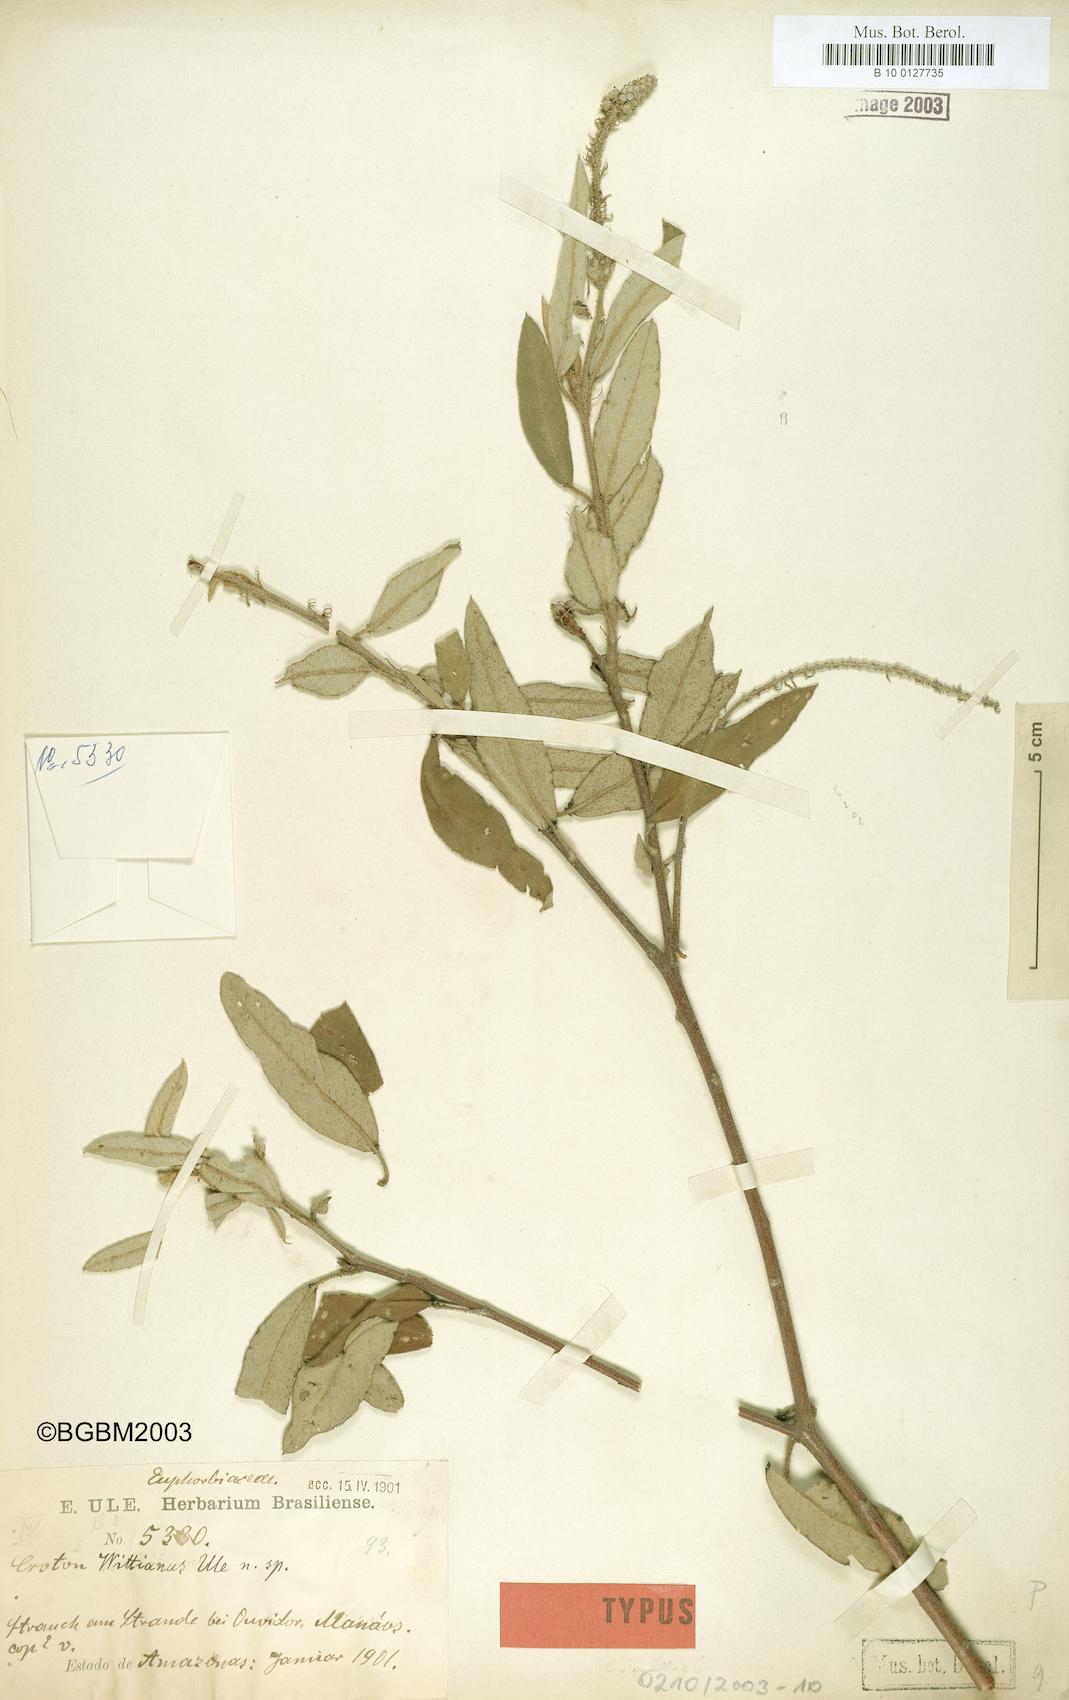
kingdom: Plantae
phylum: Tracheophyta
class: Magnoliopsida
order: Malpighiales
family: Euphorbiaceae
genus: Croton
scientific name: Croton mollis
